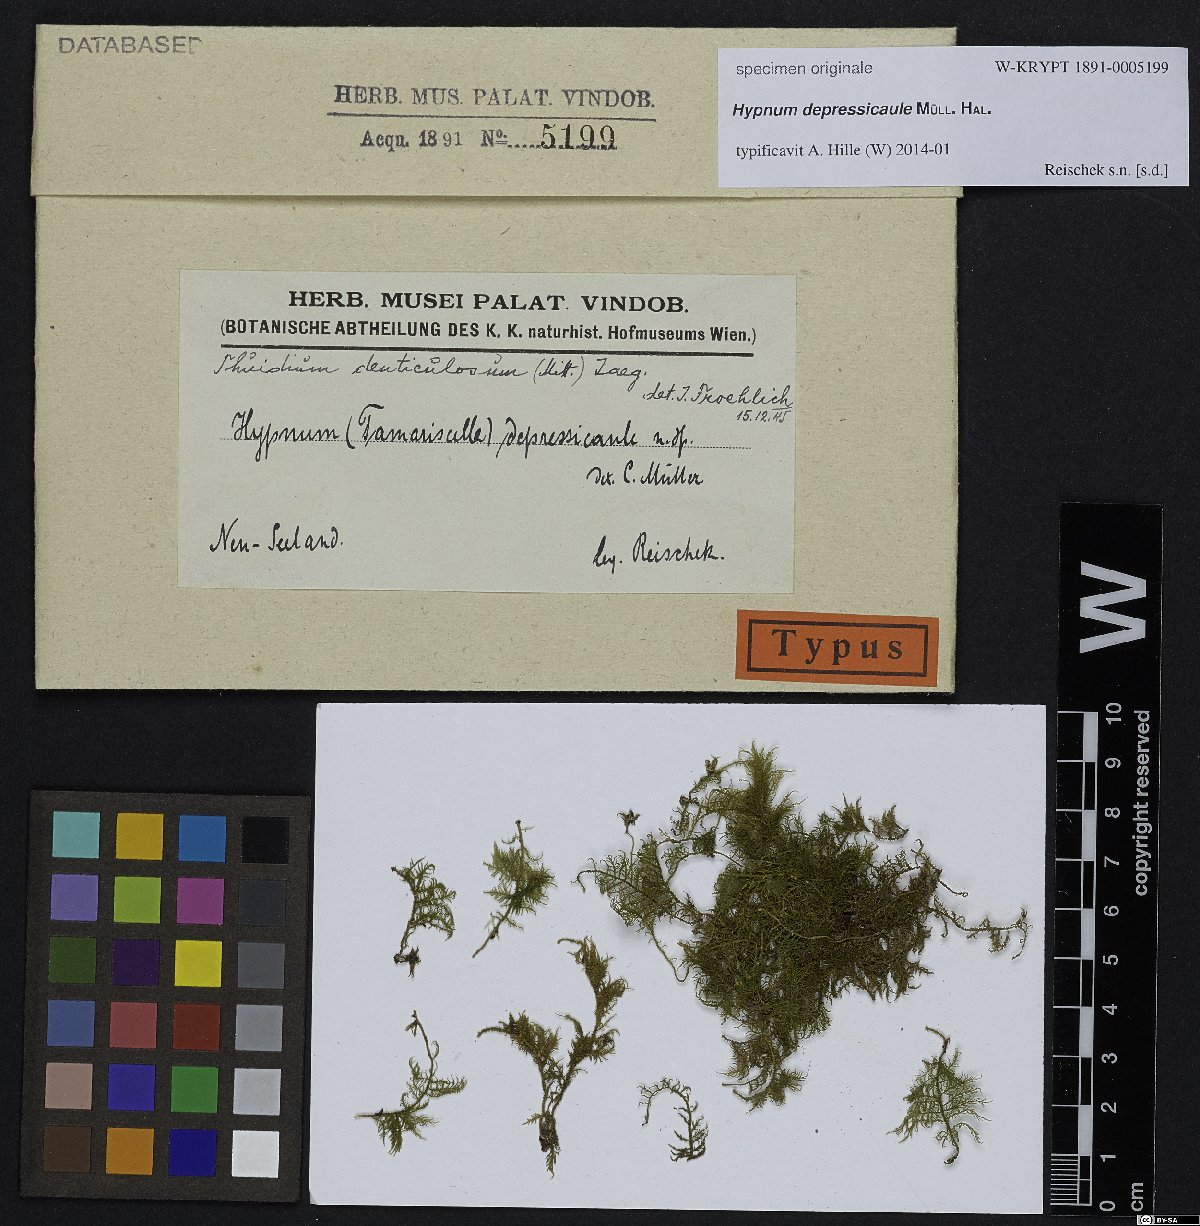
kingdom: Plantae
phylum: Bryophyta
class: Bryopsida
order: Hypnales
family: Hypnaceae
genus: Hypnum
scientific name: Hypnum
